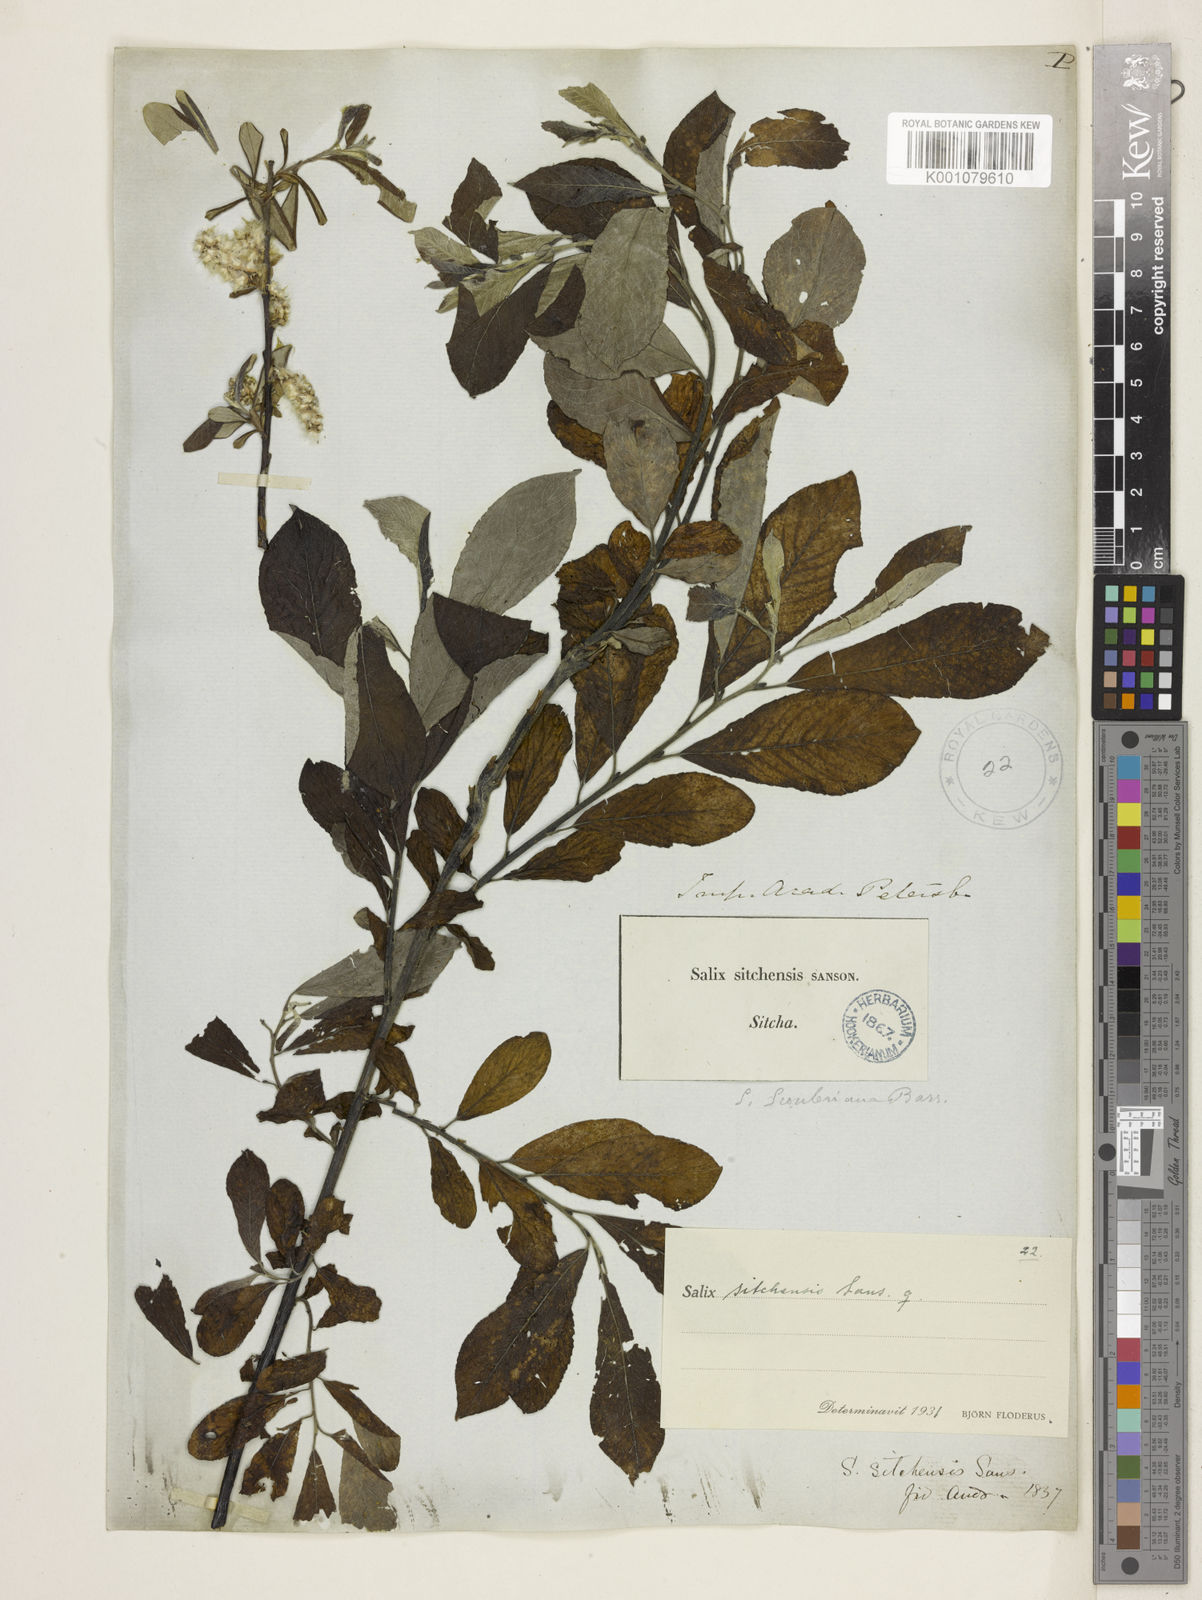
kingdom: Plantae
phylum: Tracheophyta
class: Magnoliopsida
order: Malpighiales
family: Salicaceae
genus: Salix
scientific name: Salix sitchensis
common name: Sitka willow
